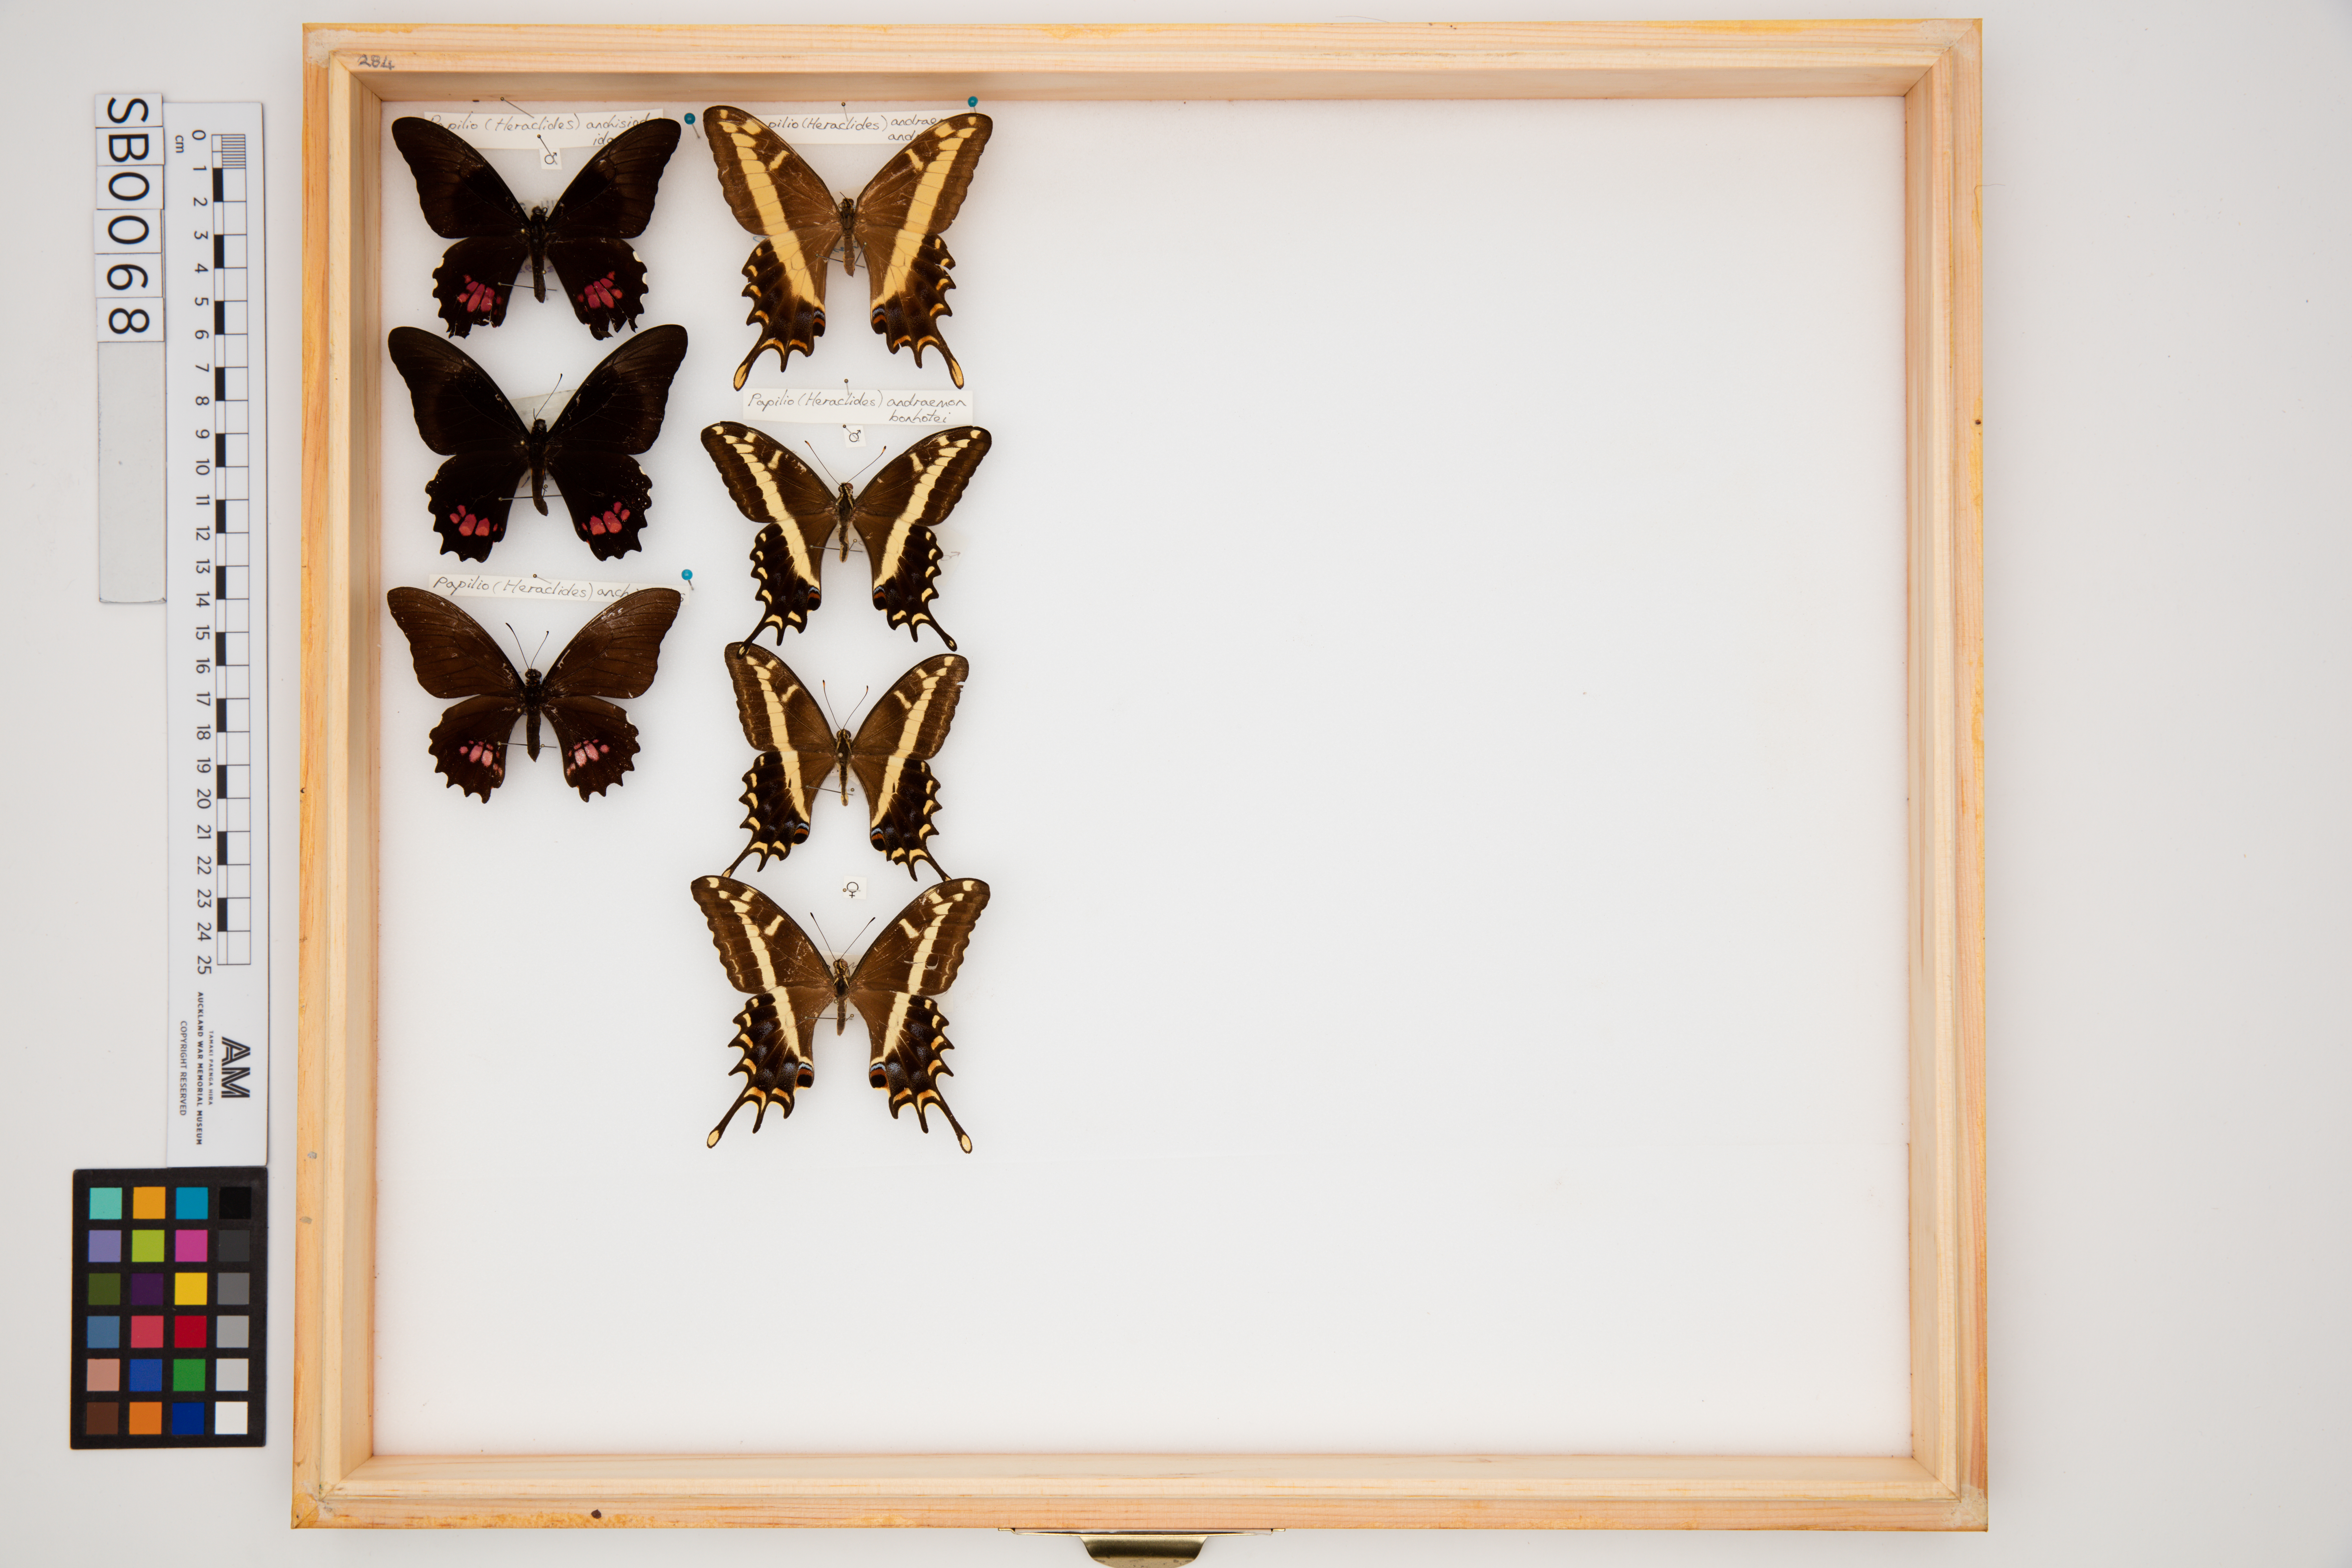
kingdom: Animalia
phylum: Arthropoda
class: Insecta
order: Lepidoptera
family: Papilionidae
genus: Papilio
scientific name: Papilio andraemon
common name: Bahaman swallowtail
